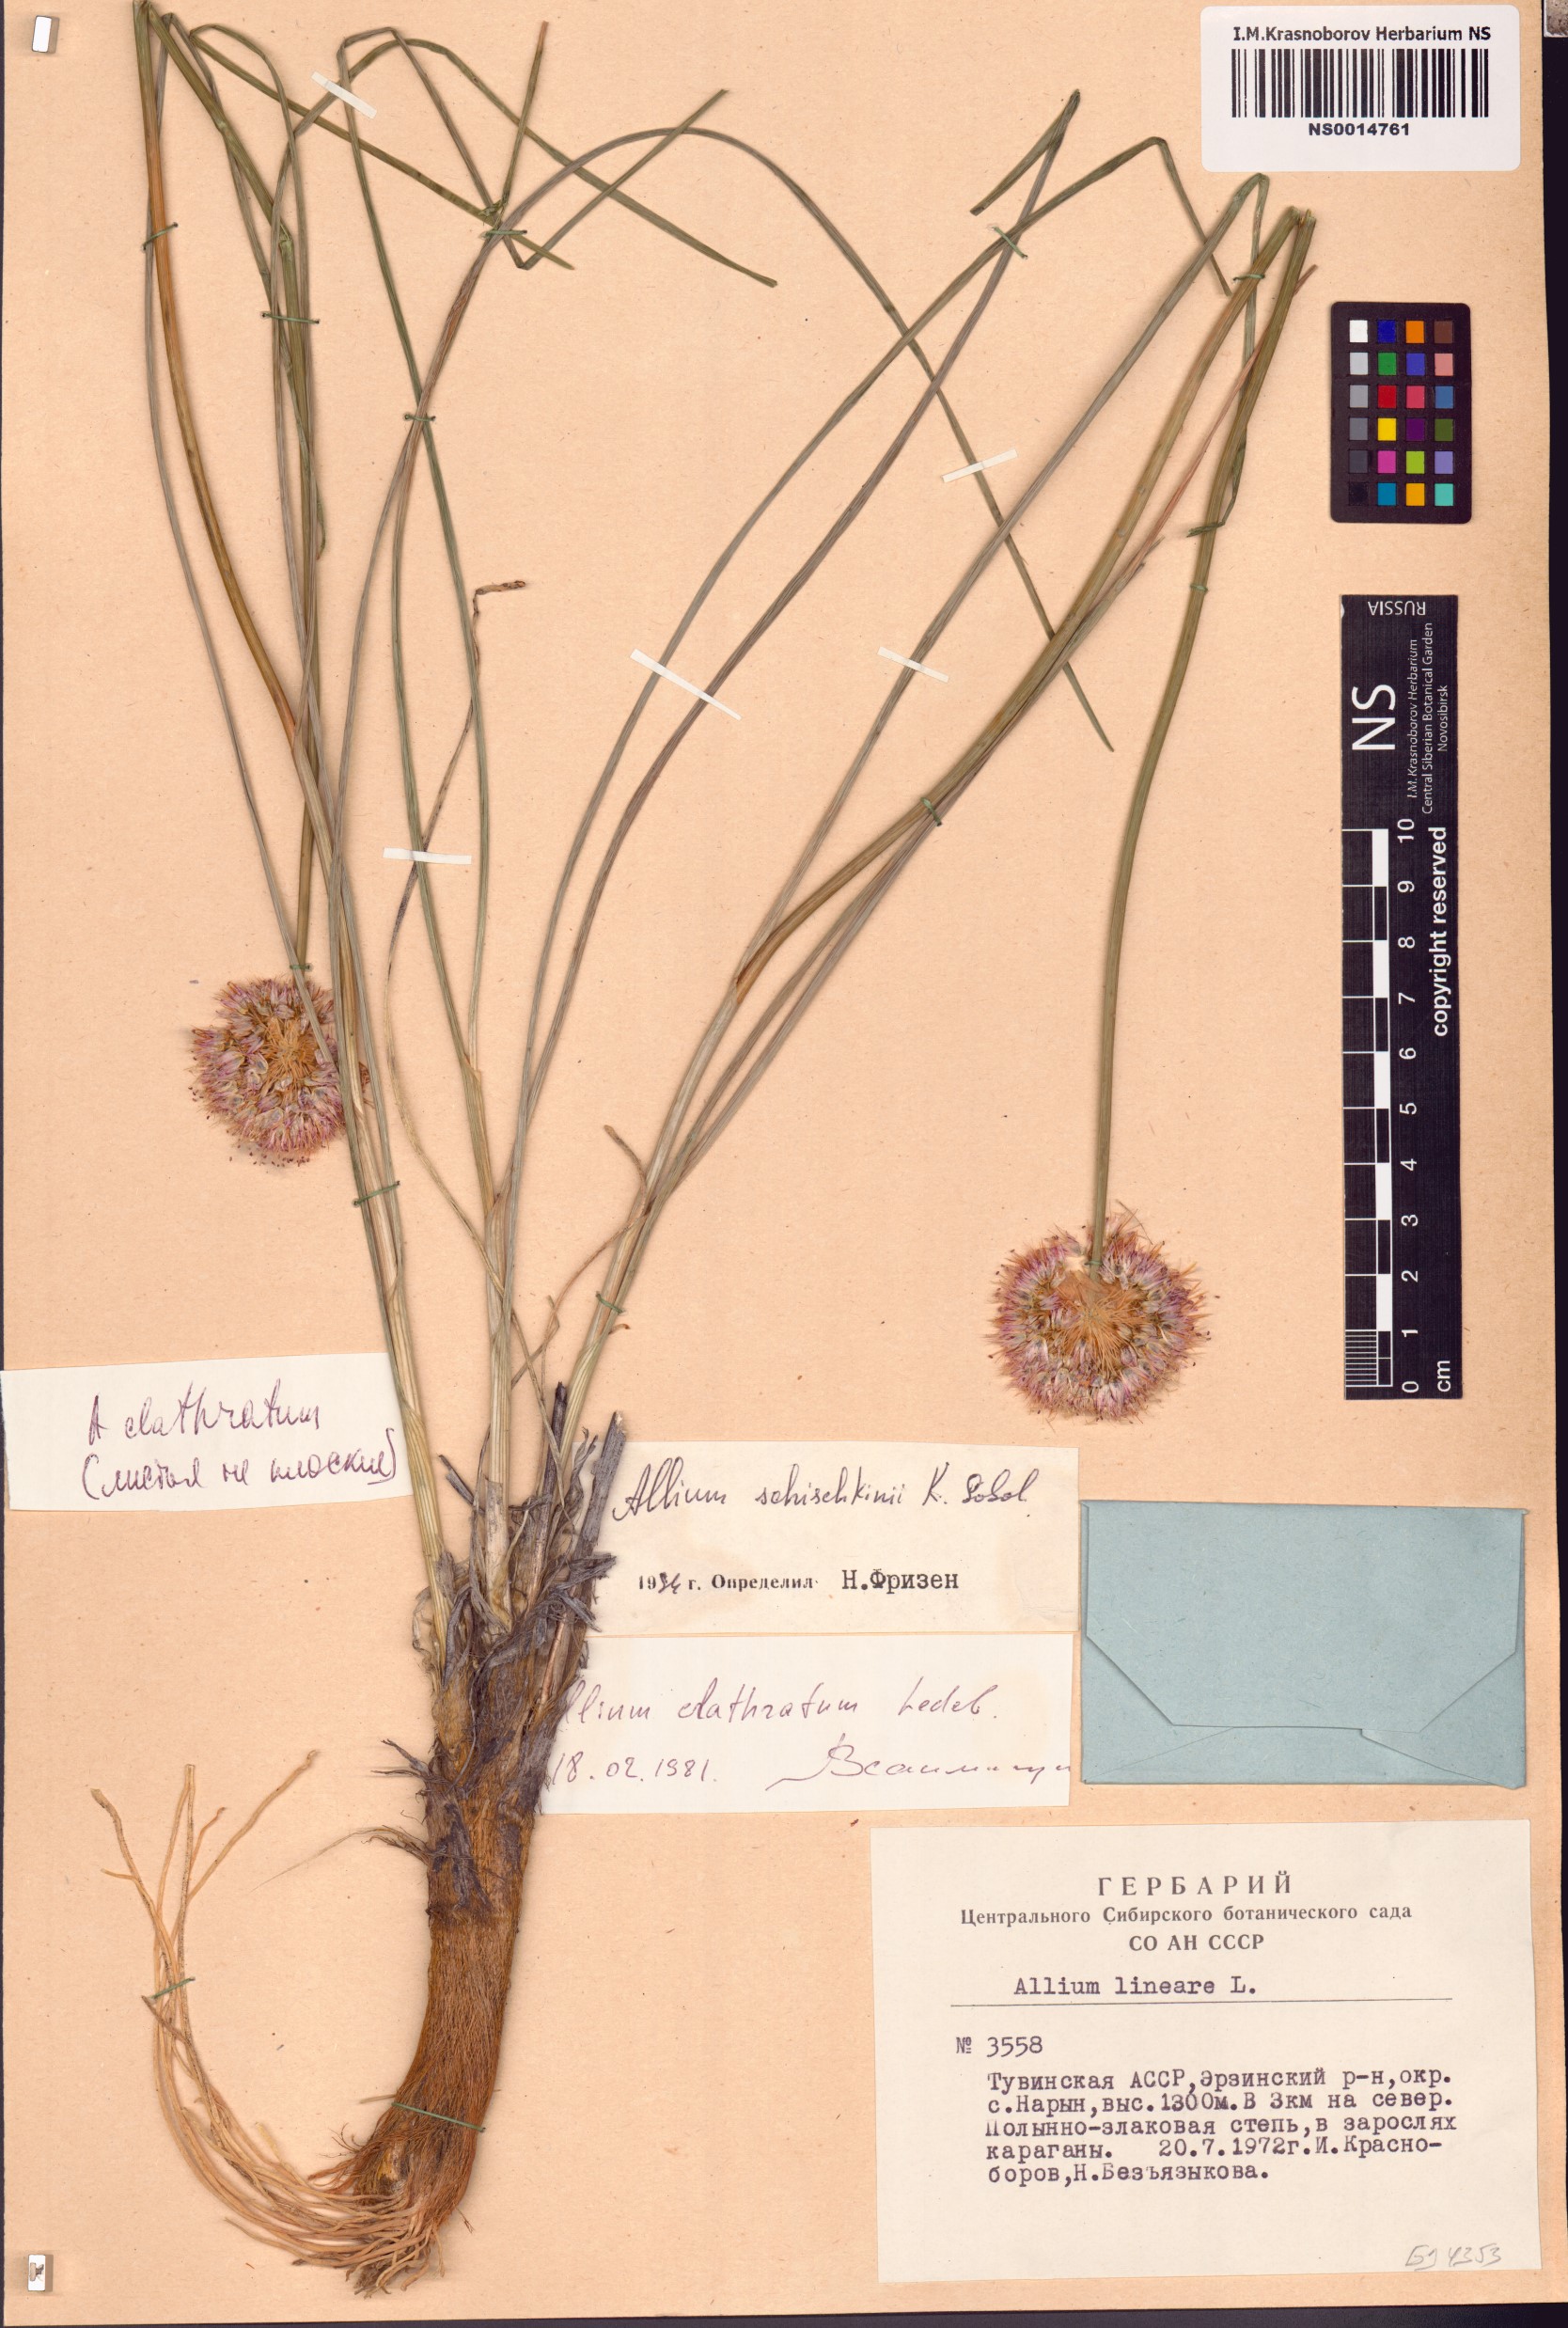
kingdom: Plantae
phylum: Tracheophyta
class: Liliopsida
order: Asparagales
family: Amaryllidaceae
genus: Allium
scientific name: Allium schischkinii
